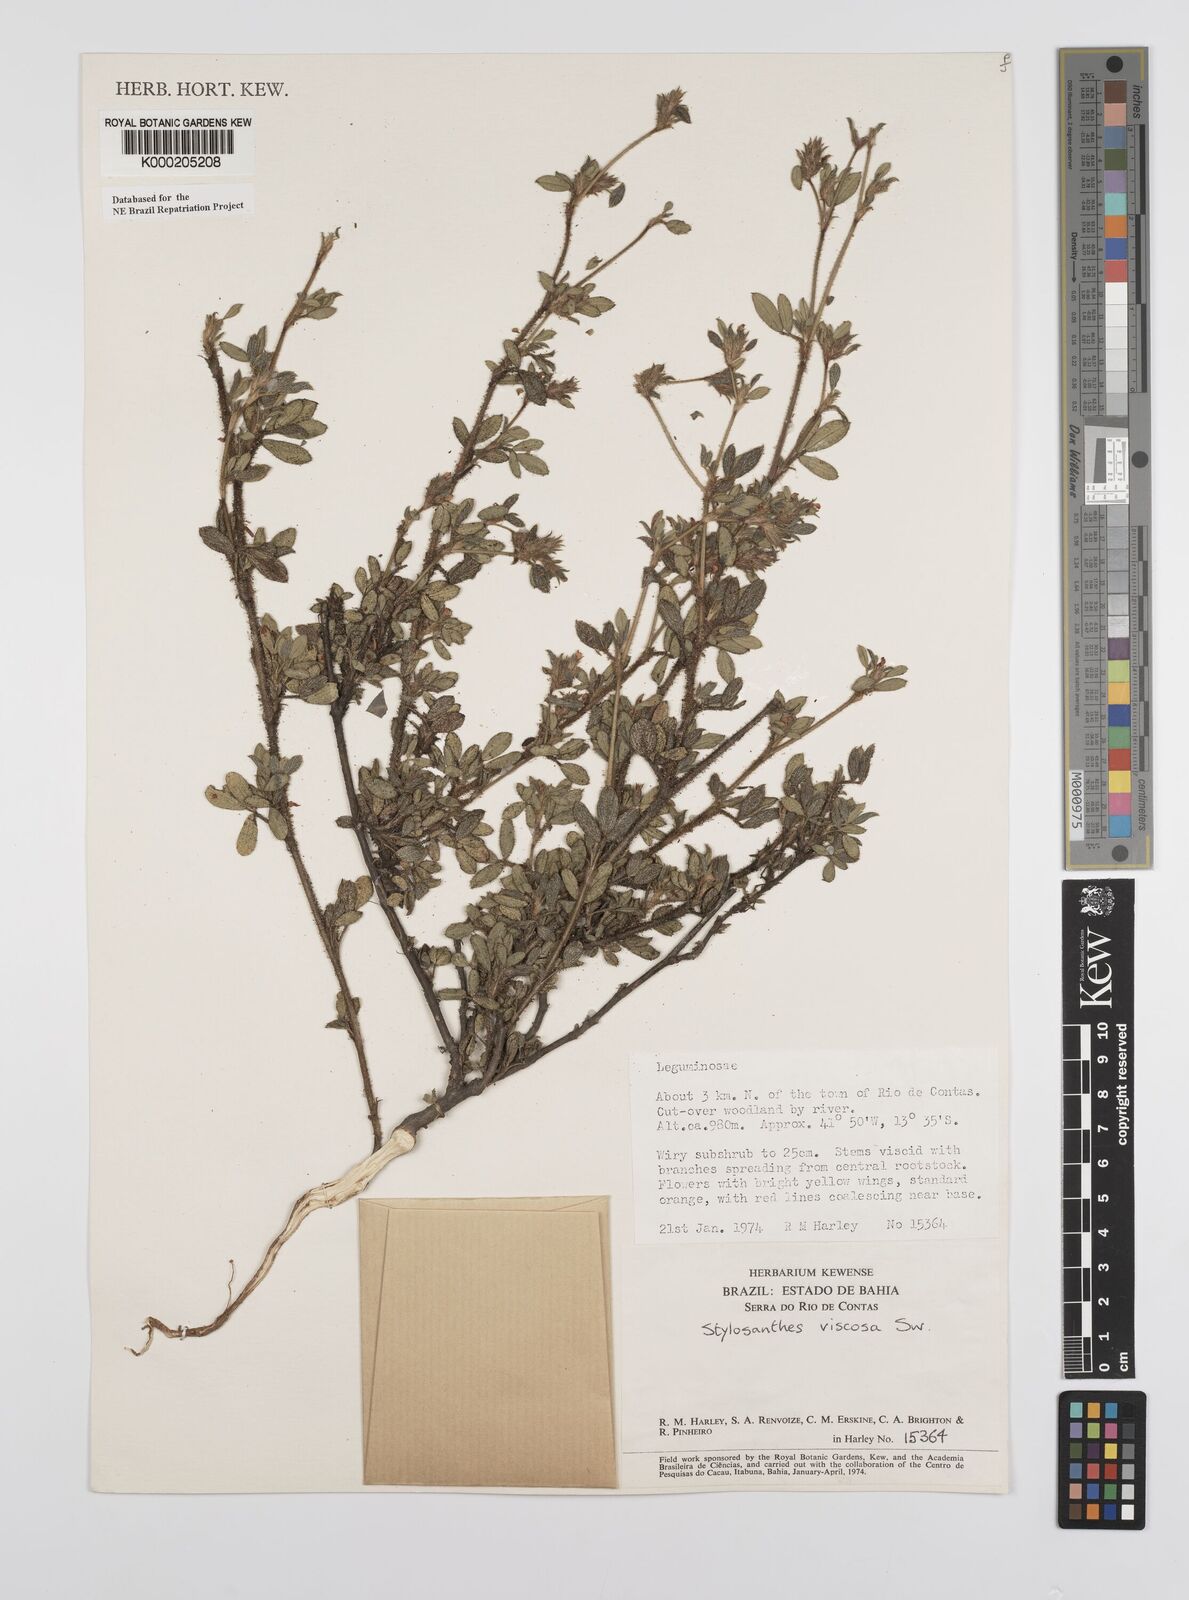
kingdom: Plantae
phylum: Tracheophyta
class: Magnoliopsida
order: Fabales
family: Fabaceae
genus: Stylosanthes
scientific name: Stylosanthes viscosa
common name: Viscid pencil-flower
